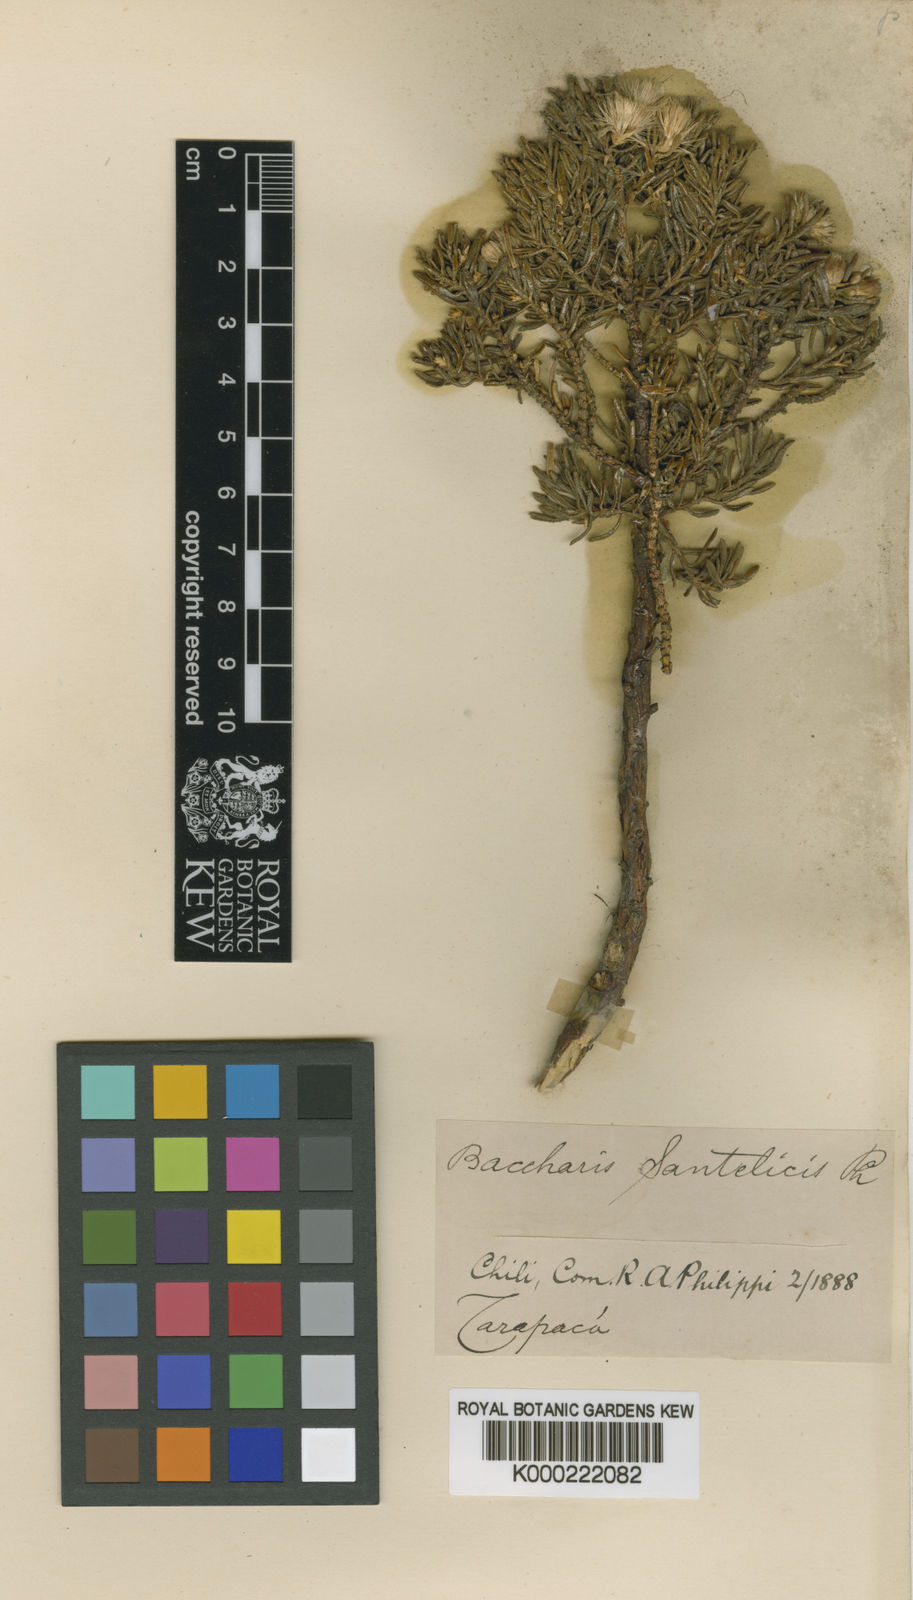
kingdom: Plantae
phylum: Tracheophyta
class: Magnoliopsida
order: Asterales
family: Asteraceae
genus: Baccharis
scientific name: Baccharis tola
